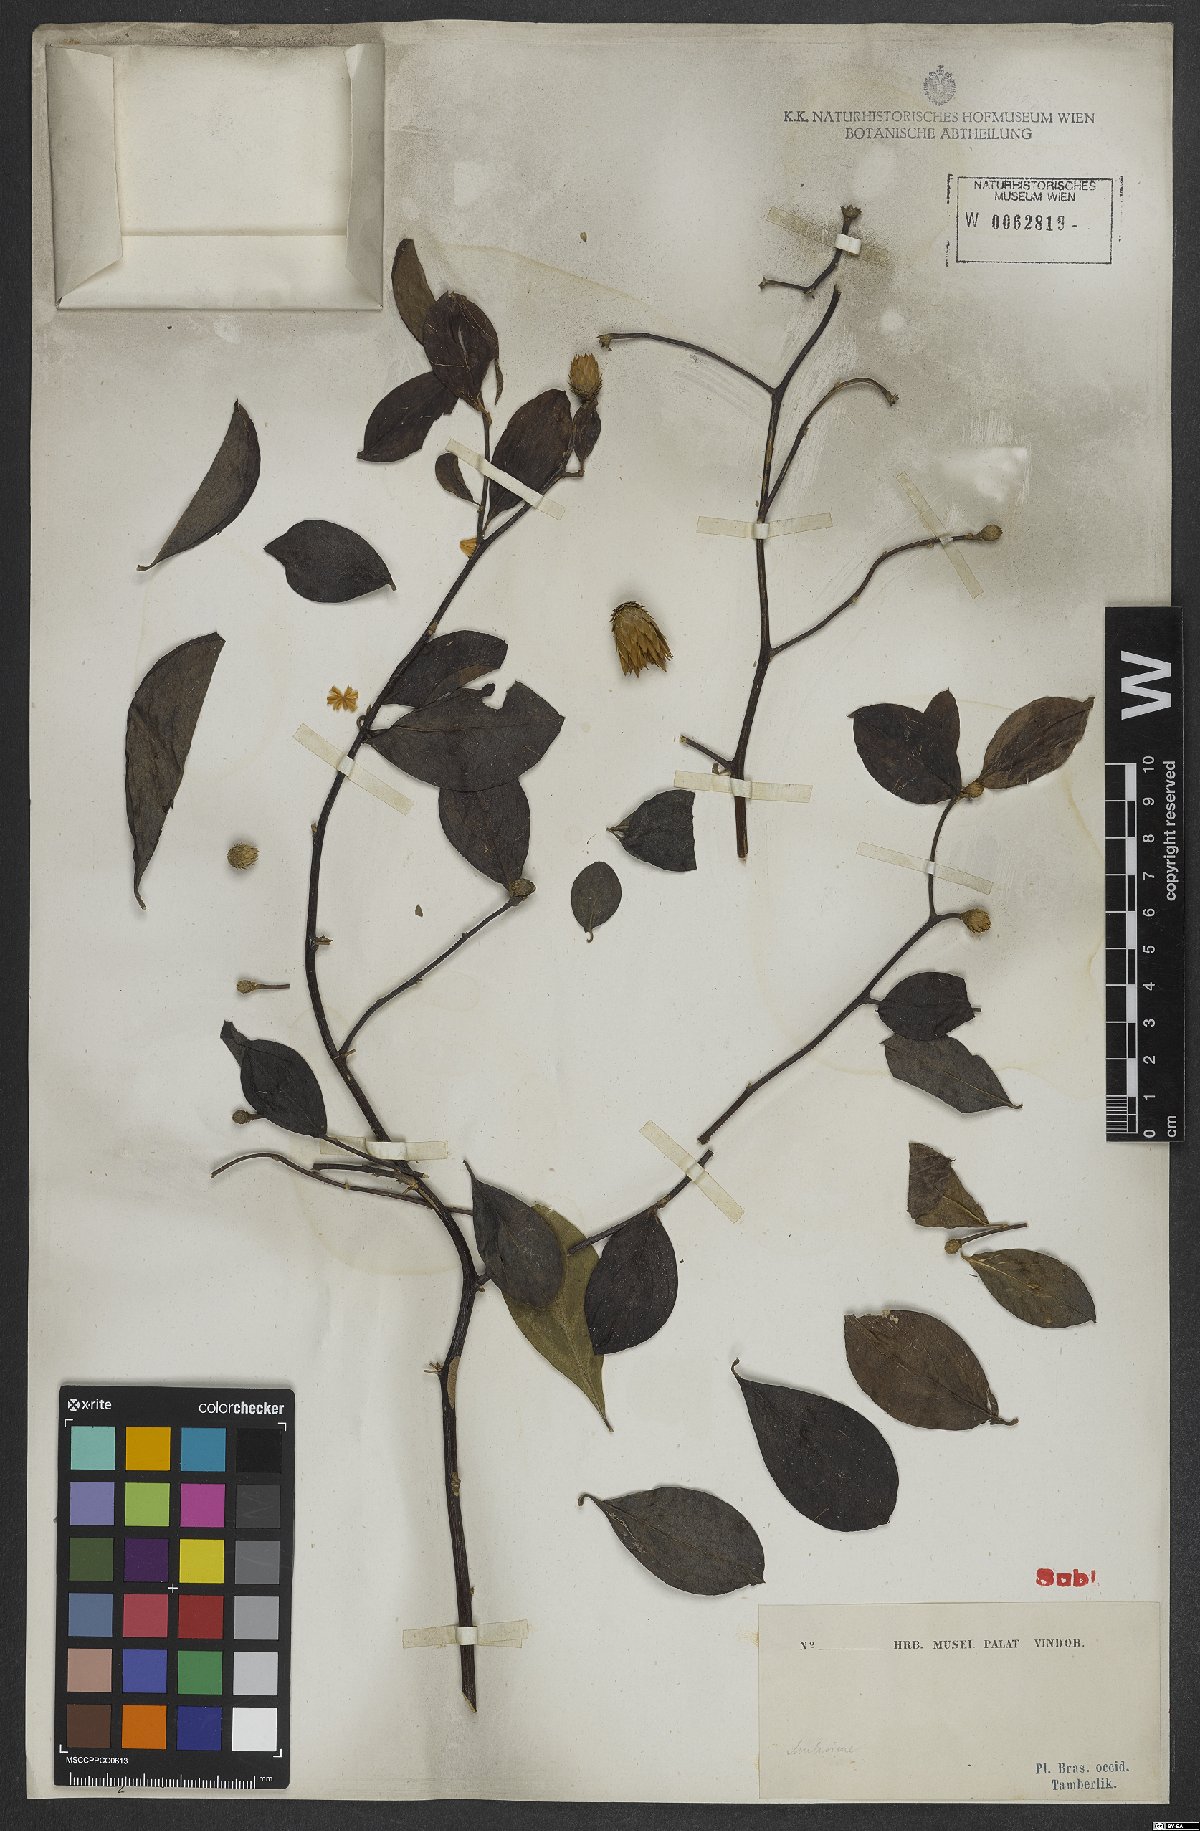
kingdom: Plantae
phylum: Tracheophyta
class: Magnoliopsida
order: Asterales
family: Asteraceae
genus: Barnadesia
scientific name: Barnadesia
